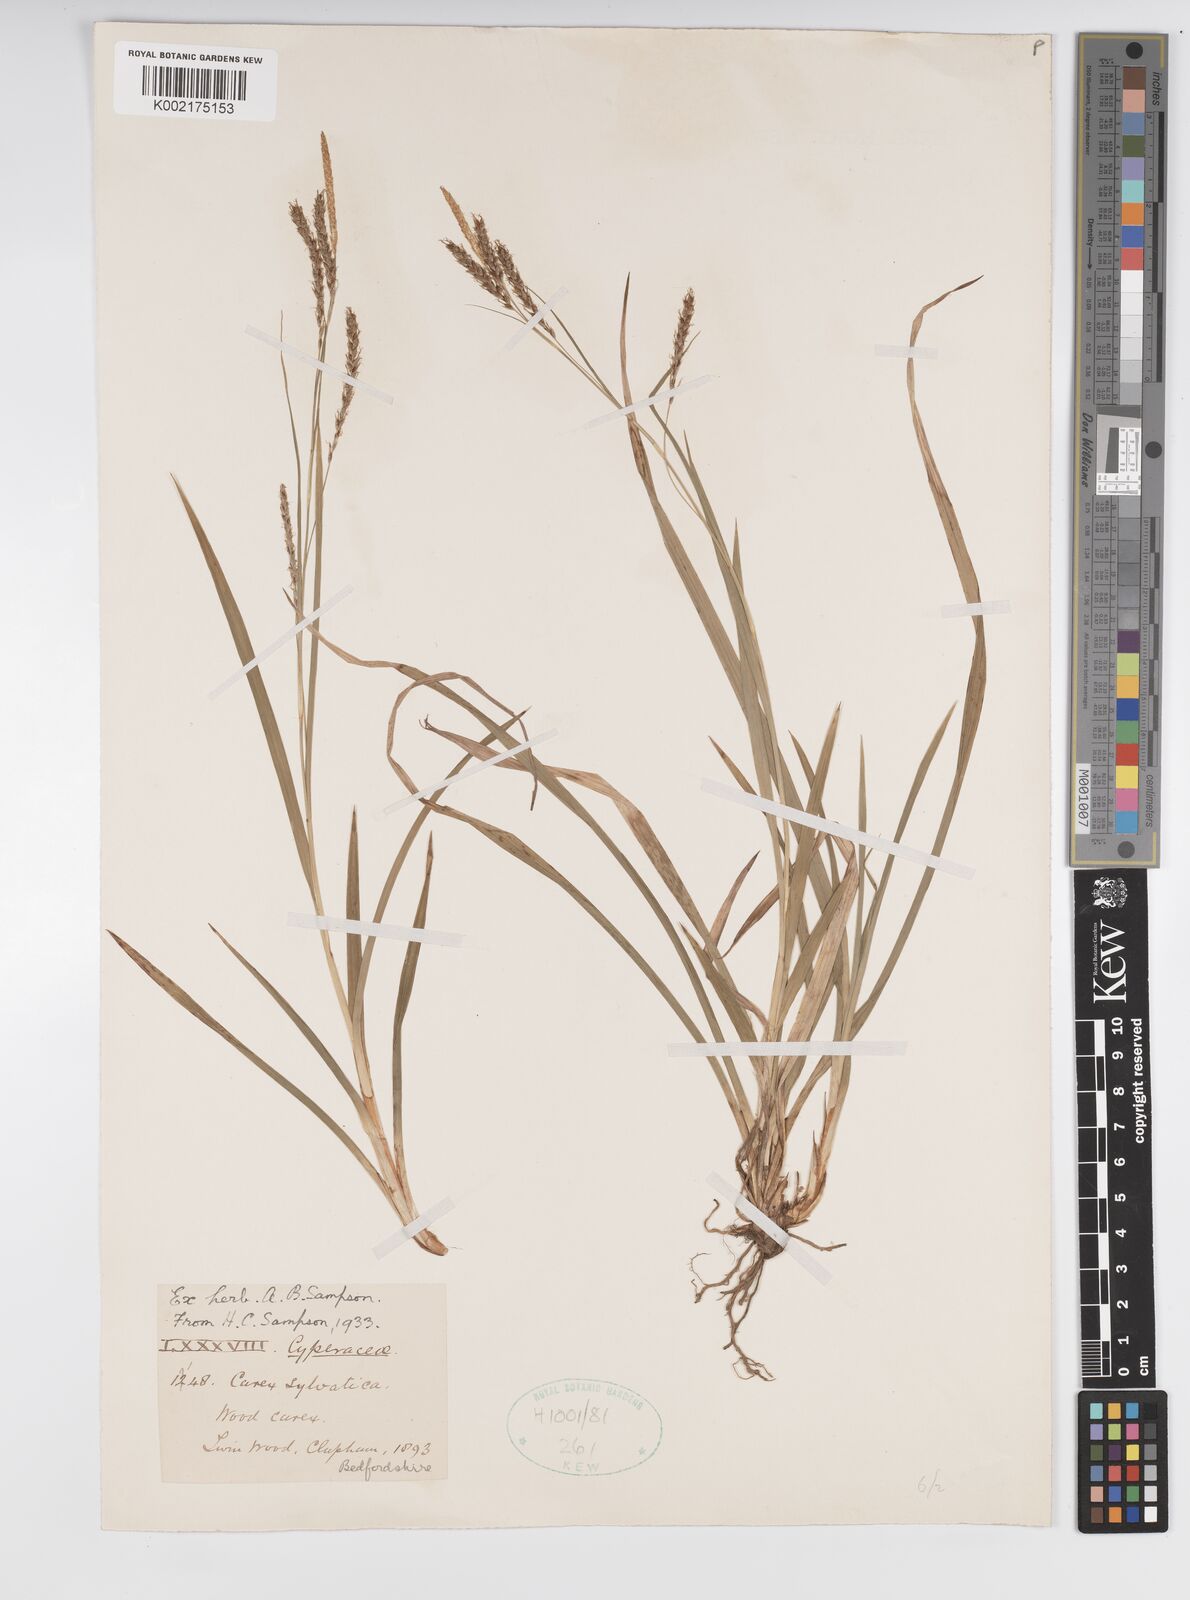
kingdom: Plantae
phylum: Tracheophyta
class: Liliopsida
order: Poales
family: Cyperaceae
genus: Carex
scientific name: Carex sylvatica
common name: Wood-sedge
